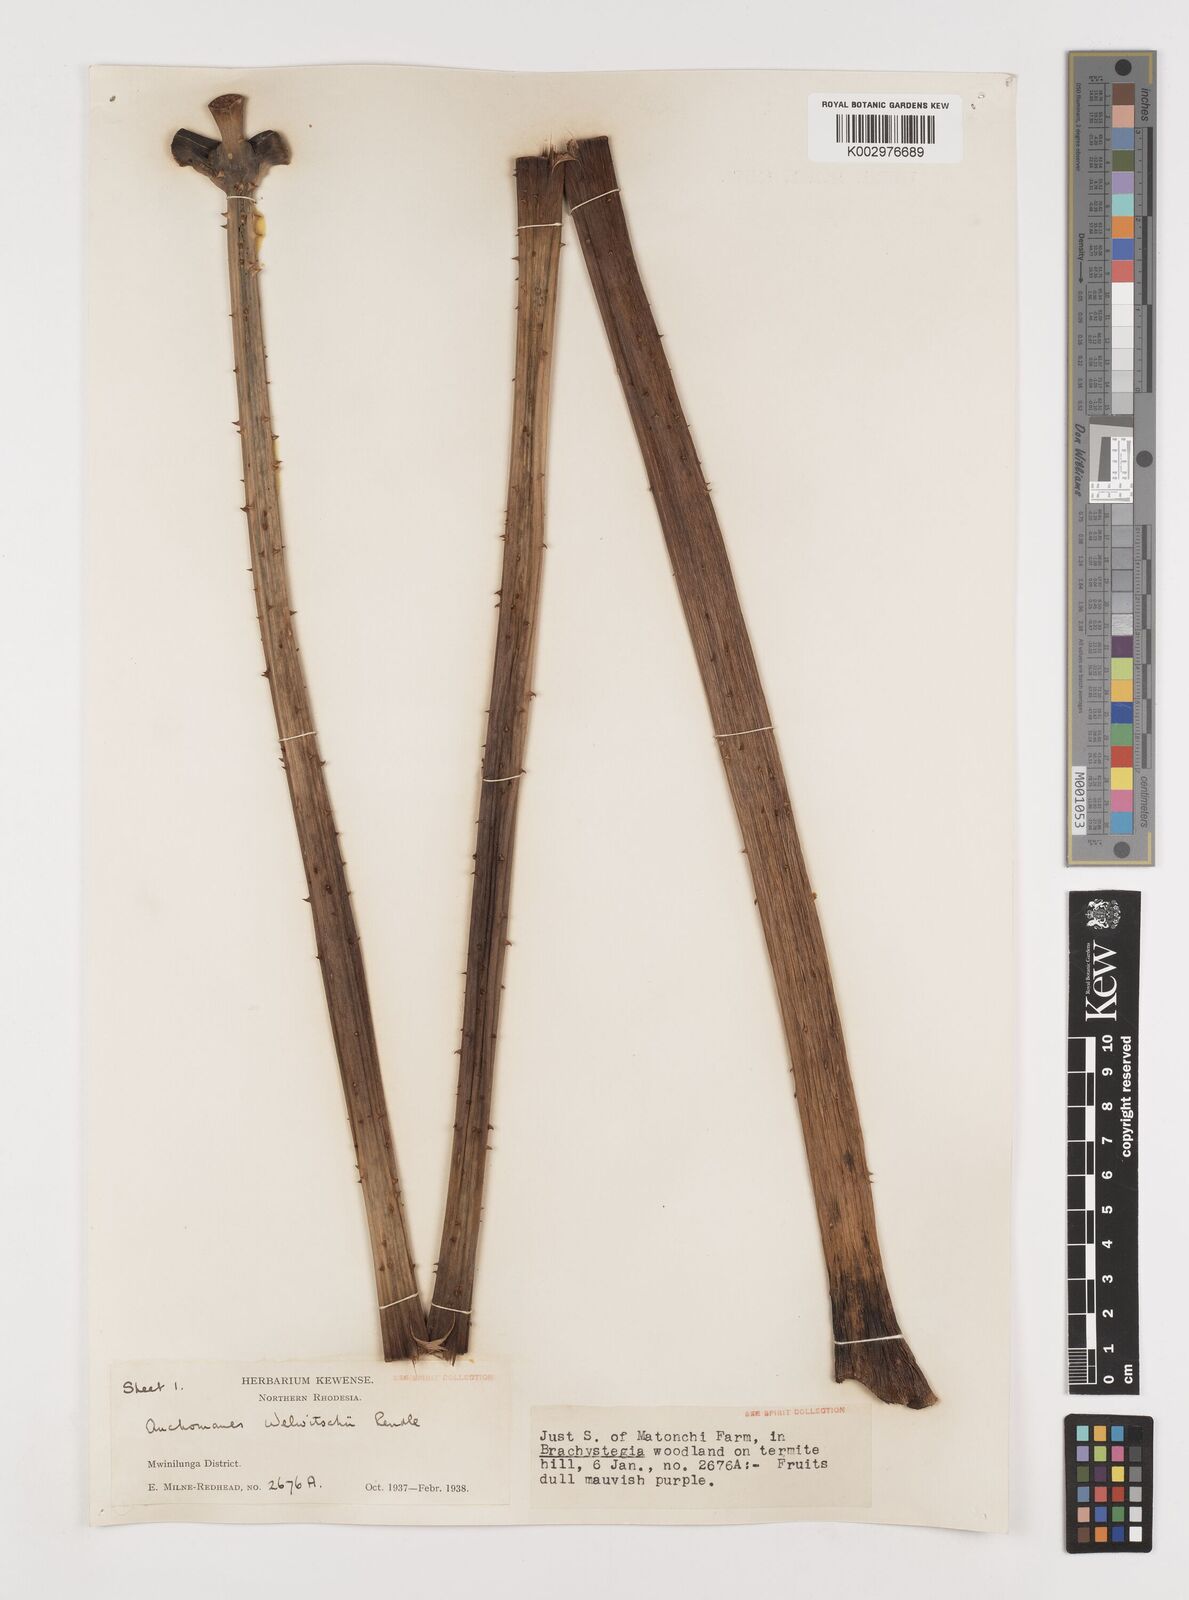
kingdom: Plantae
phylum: Tracheophyta
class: Liliopsida
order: Alismatales
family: Araceae
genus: Anchomanes
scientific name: Anchomanes difformis
